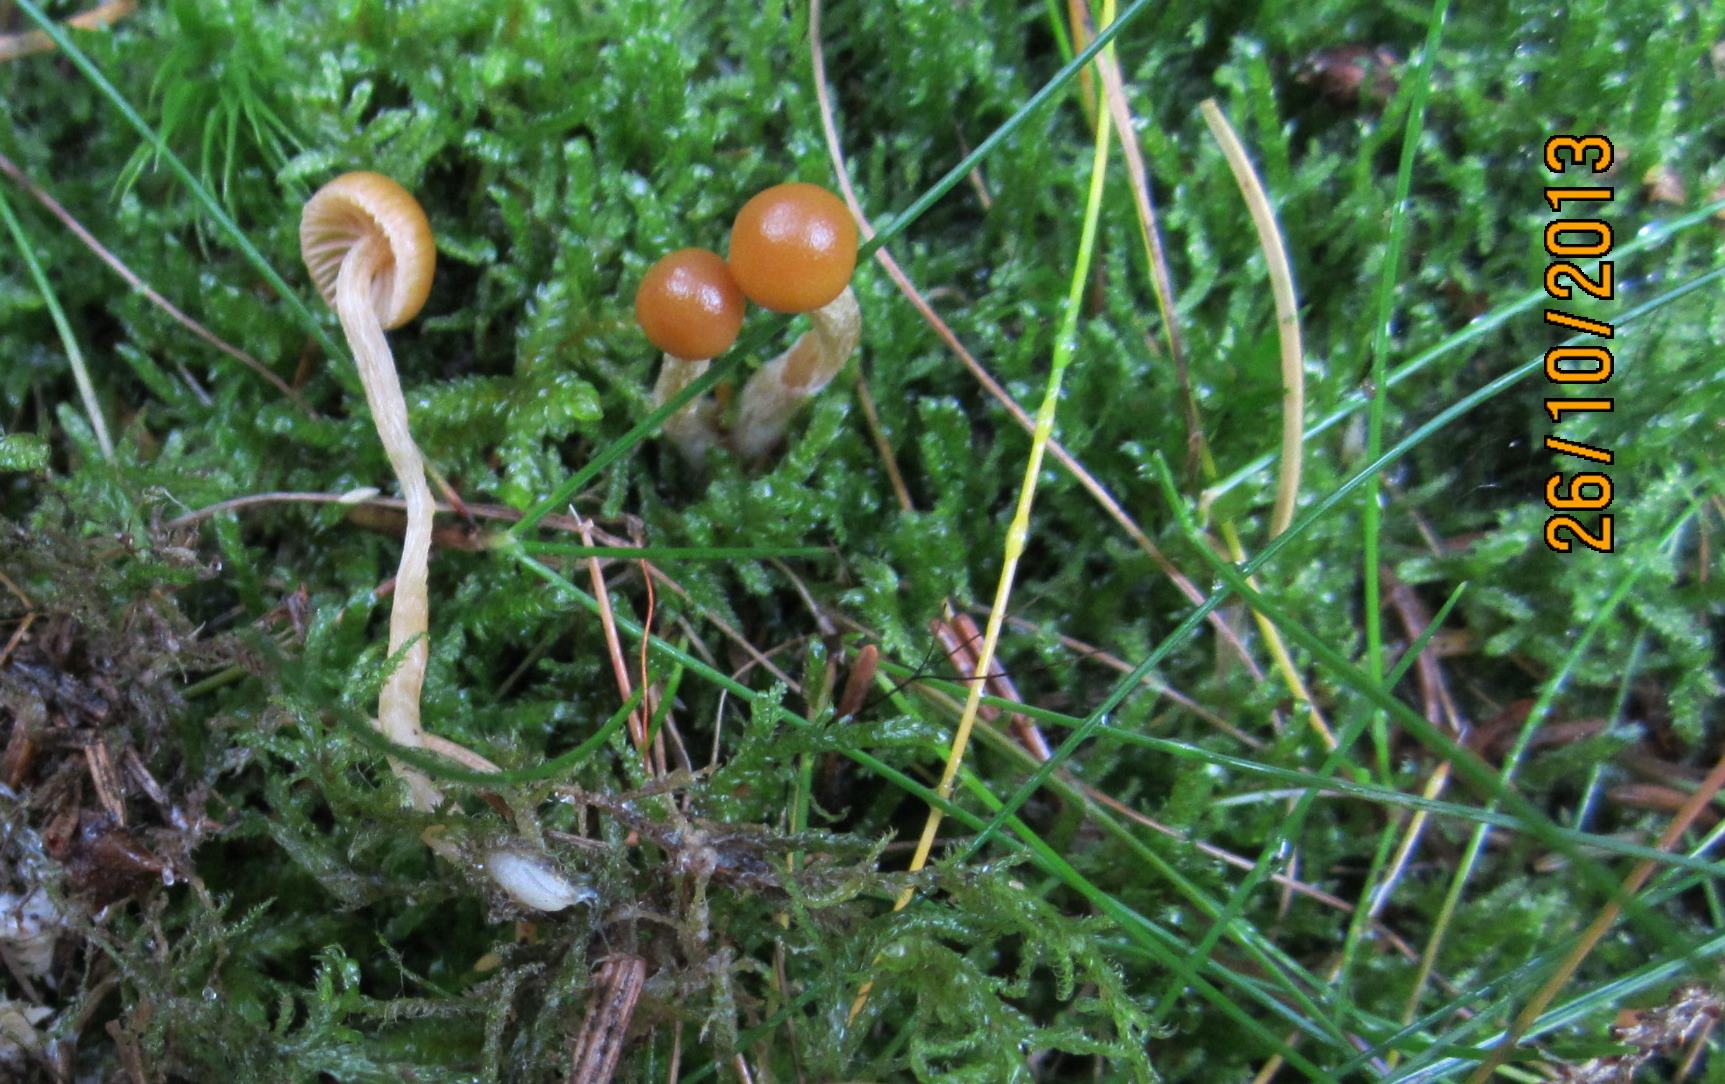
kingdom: Fungi
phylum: Basidiomycota
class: Agaricomycetes
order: Agaricales
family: Hymenogastraceae
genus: Galerina
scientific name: Galerina pumila
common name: honninggul hjelmhat
